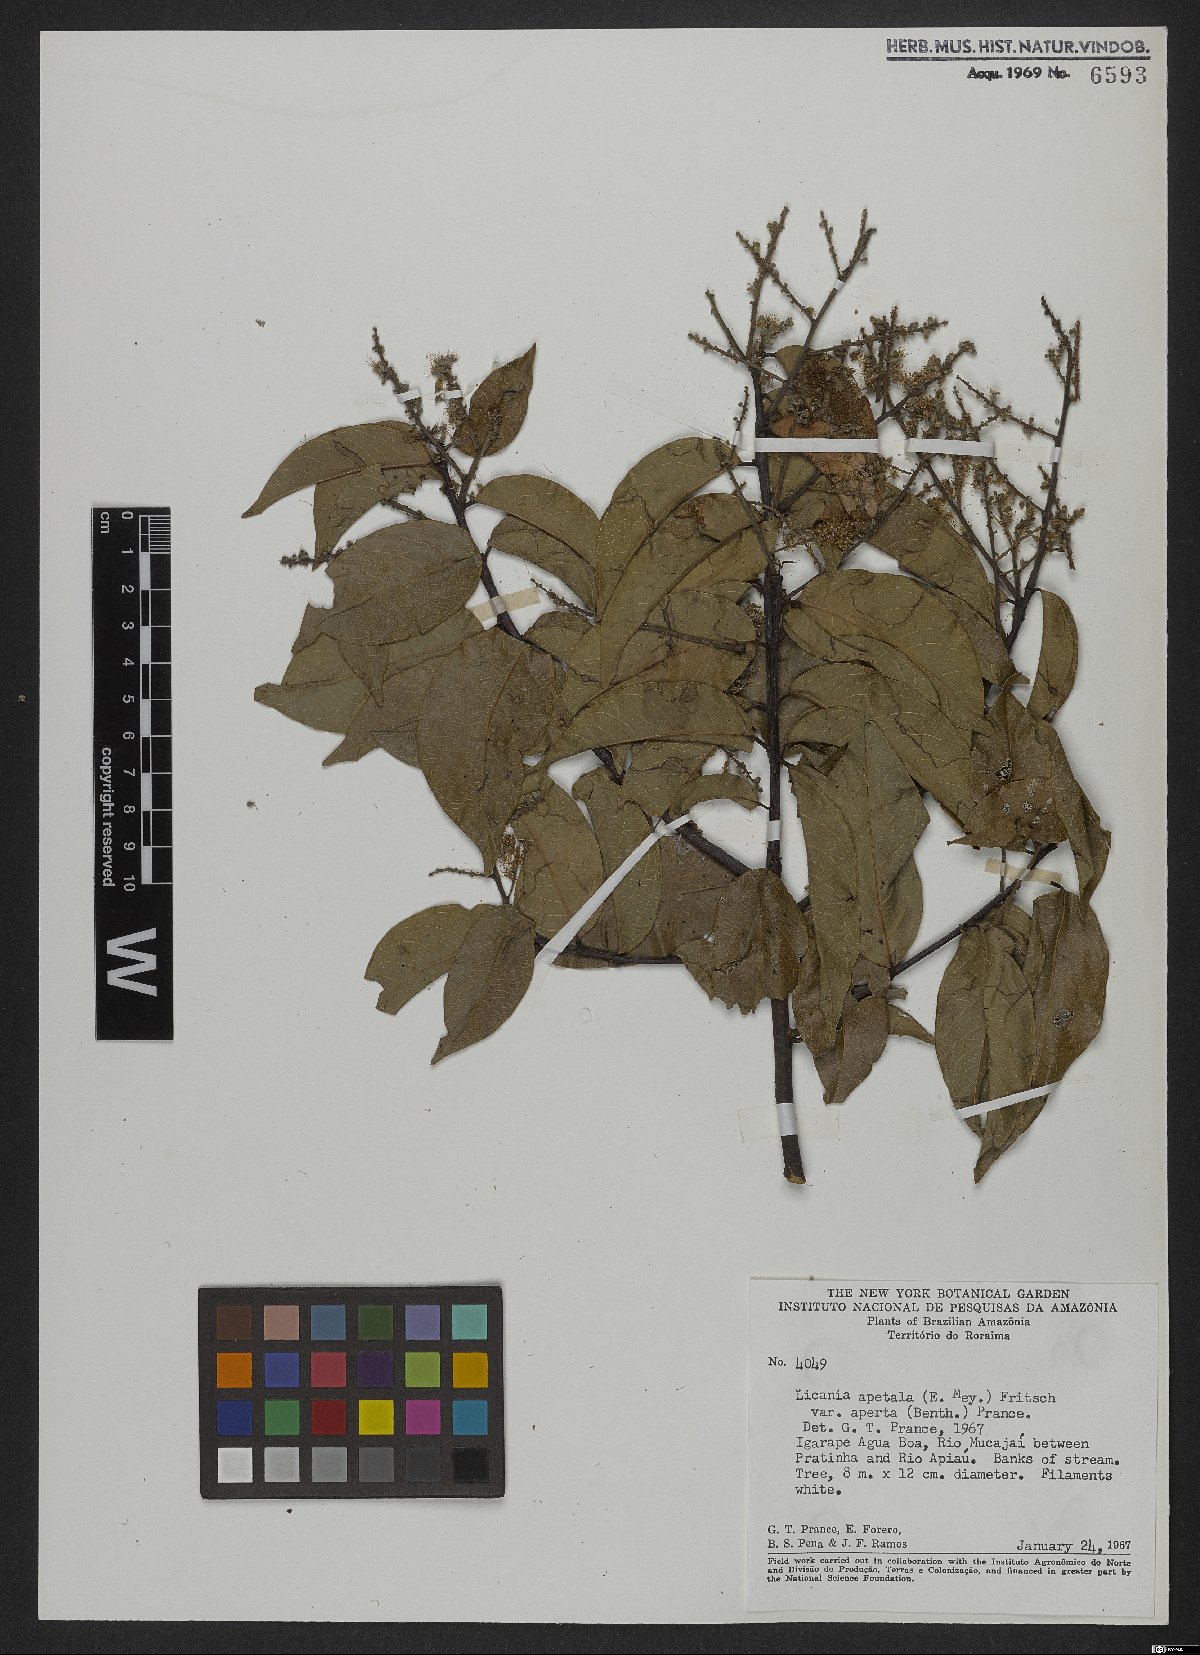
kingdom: Plantae
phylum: Tracheophyta
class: Magnoliopsida
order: Malpighiales
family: Chrysobalanaceae
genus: Leptobalanus
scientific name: Leptobalanus apetalus
